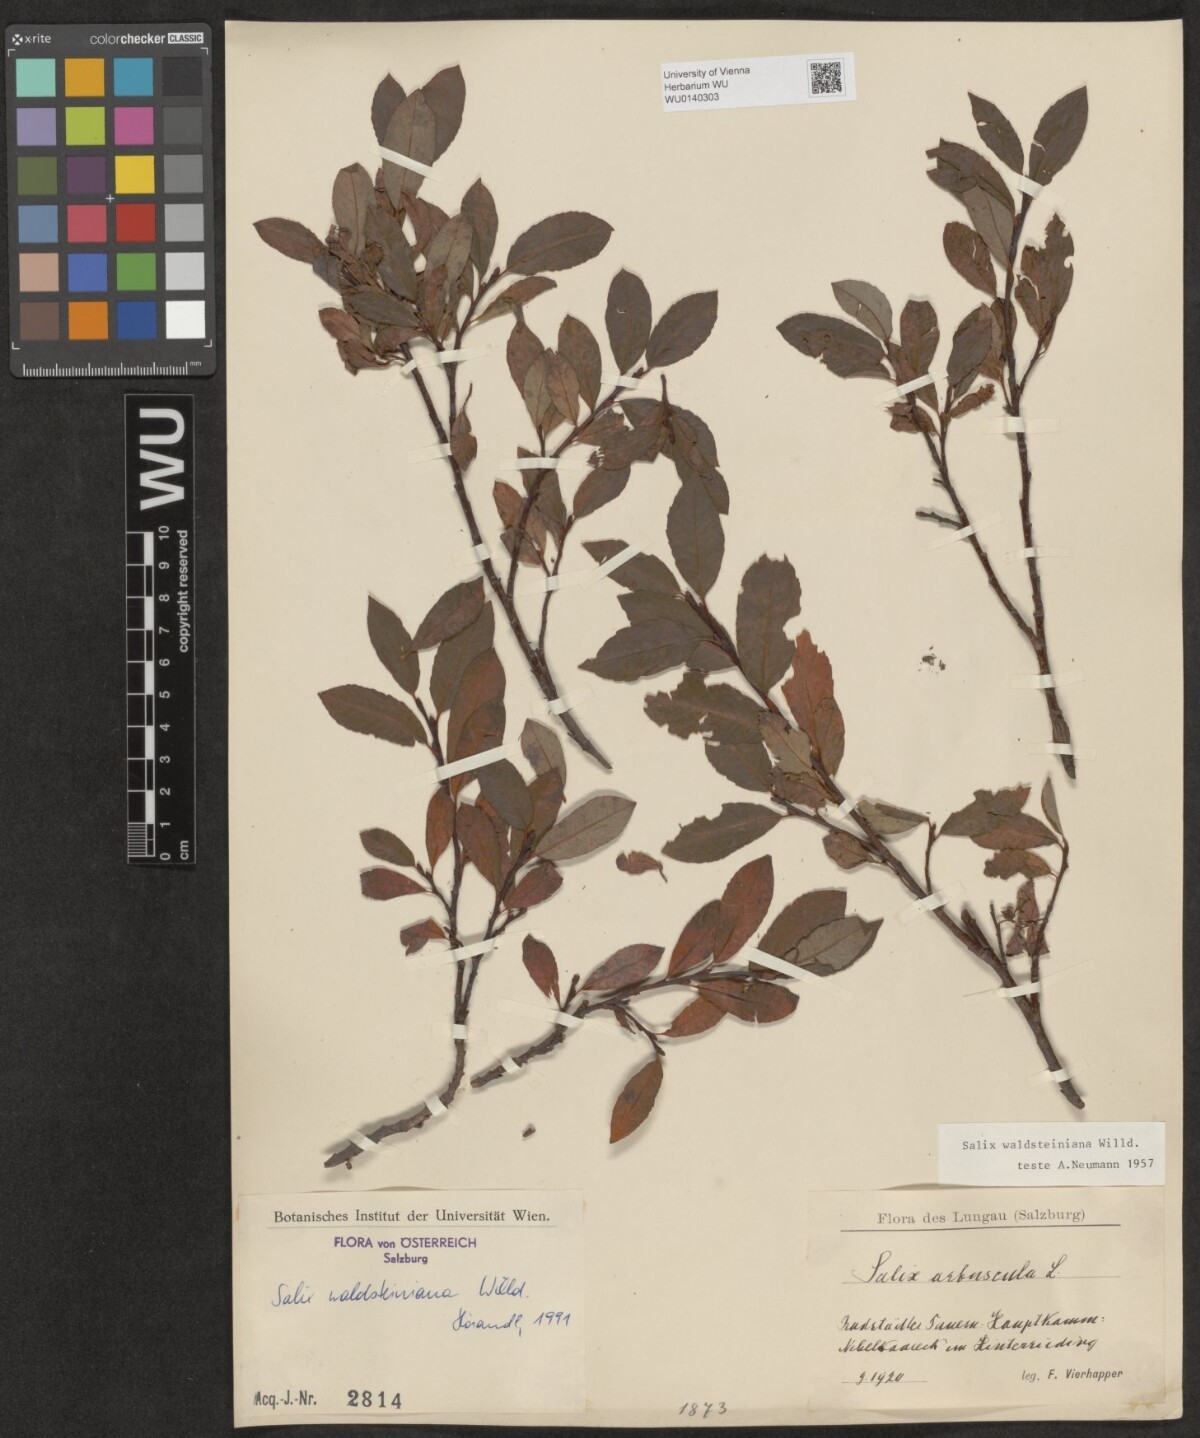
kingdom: Plantae
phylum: Tracheophyta
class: Magnoliopsida
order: Malpighiales
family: Salicaceae
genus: Salix
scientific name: Salix waldsteiniana
